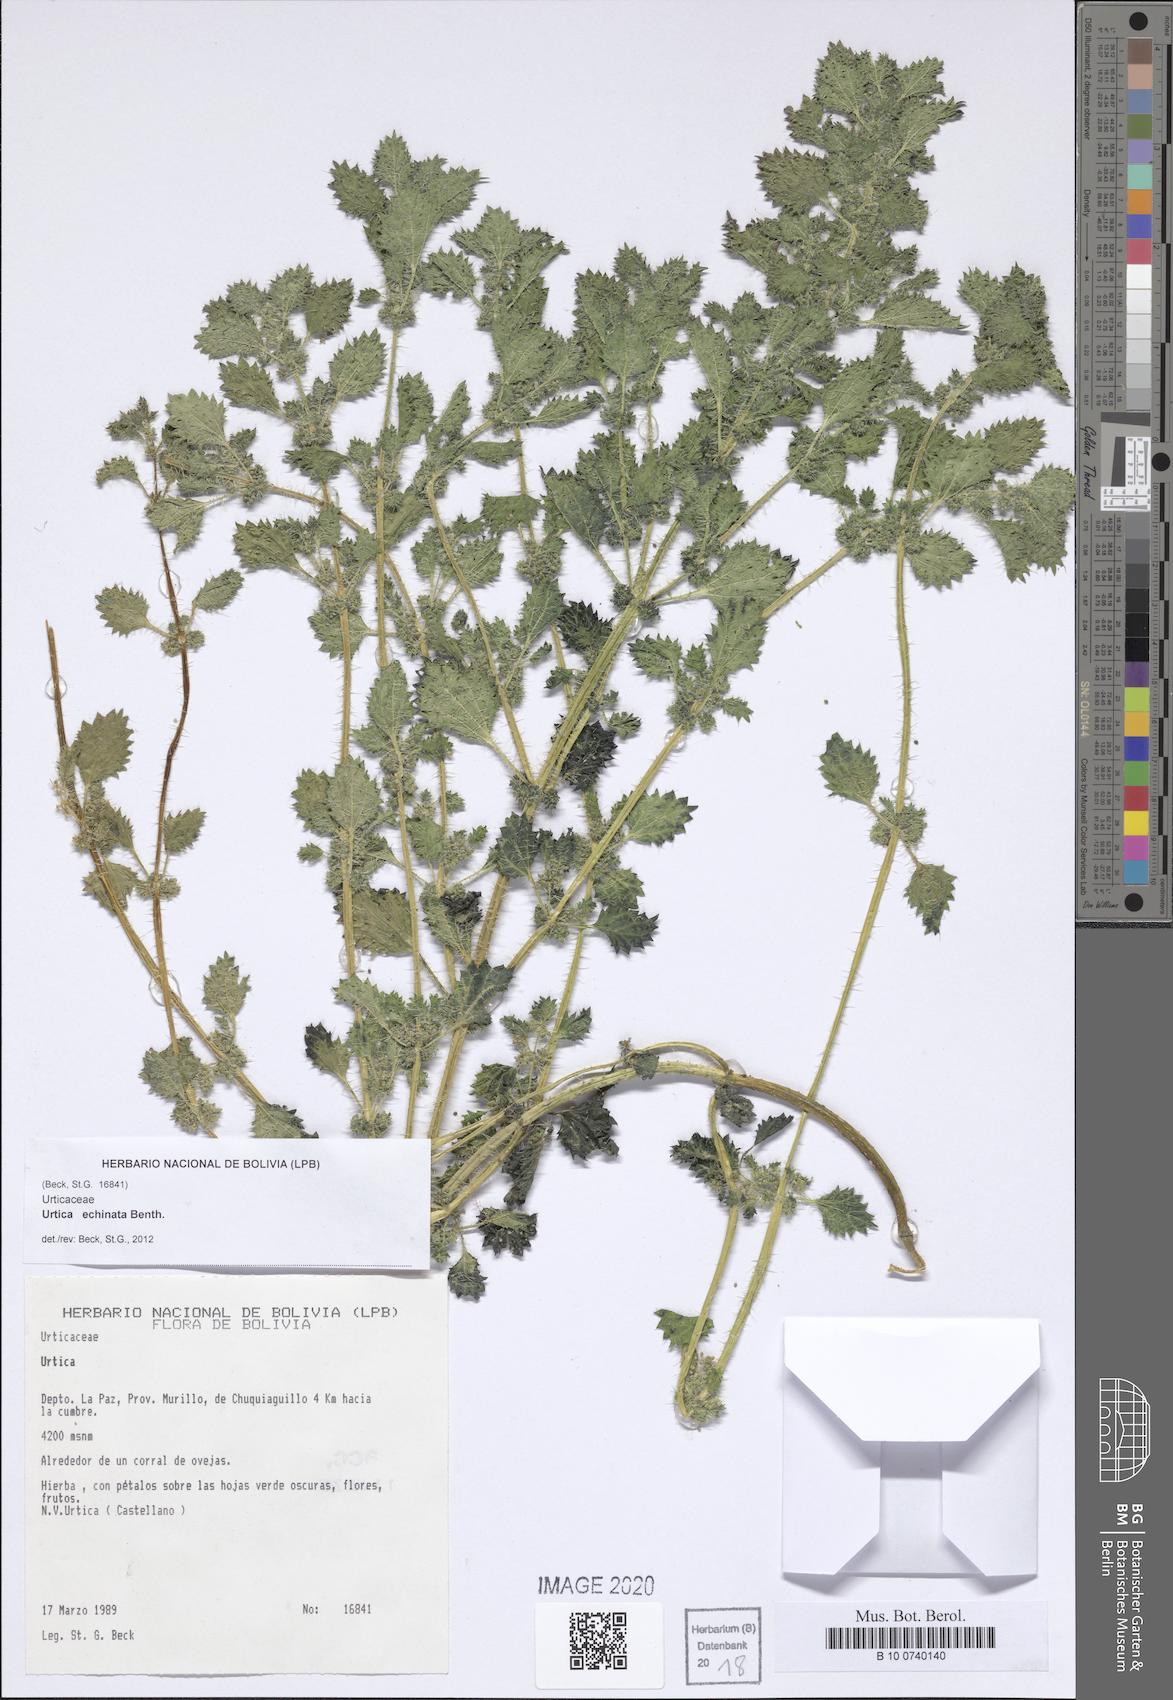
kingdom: Plantae
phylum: Tracheophyta
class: Magnoliopsida
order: Rosales
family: Urticaceae
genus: Urtica
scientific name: Urtica echinata
